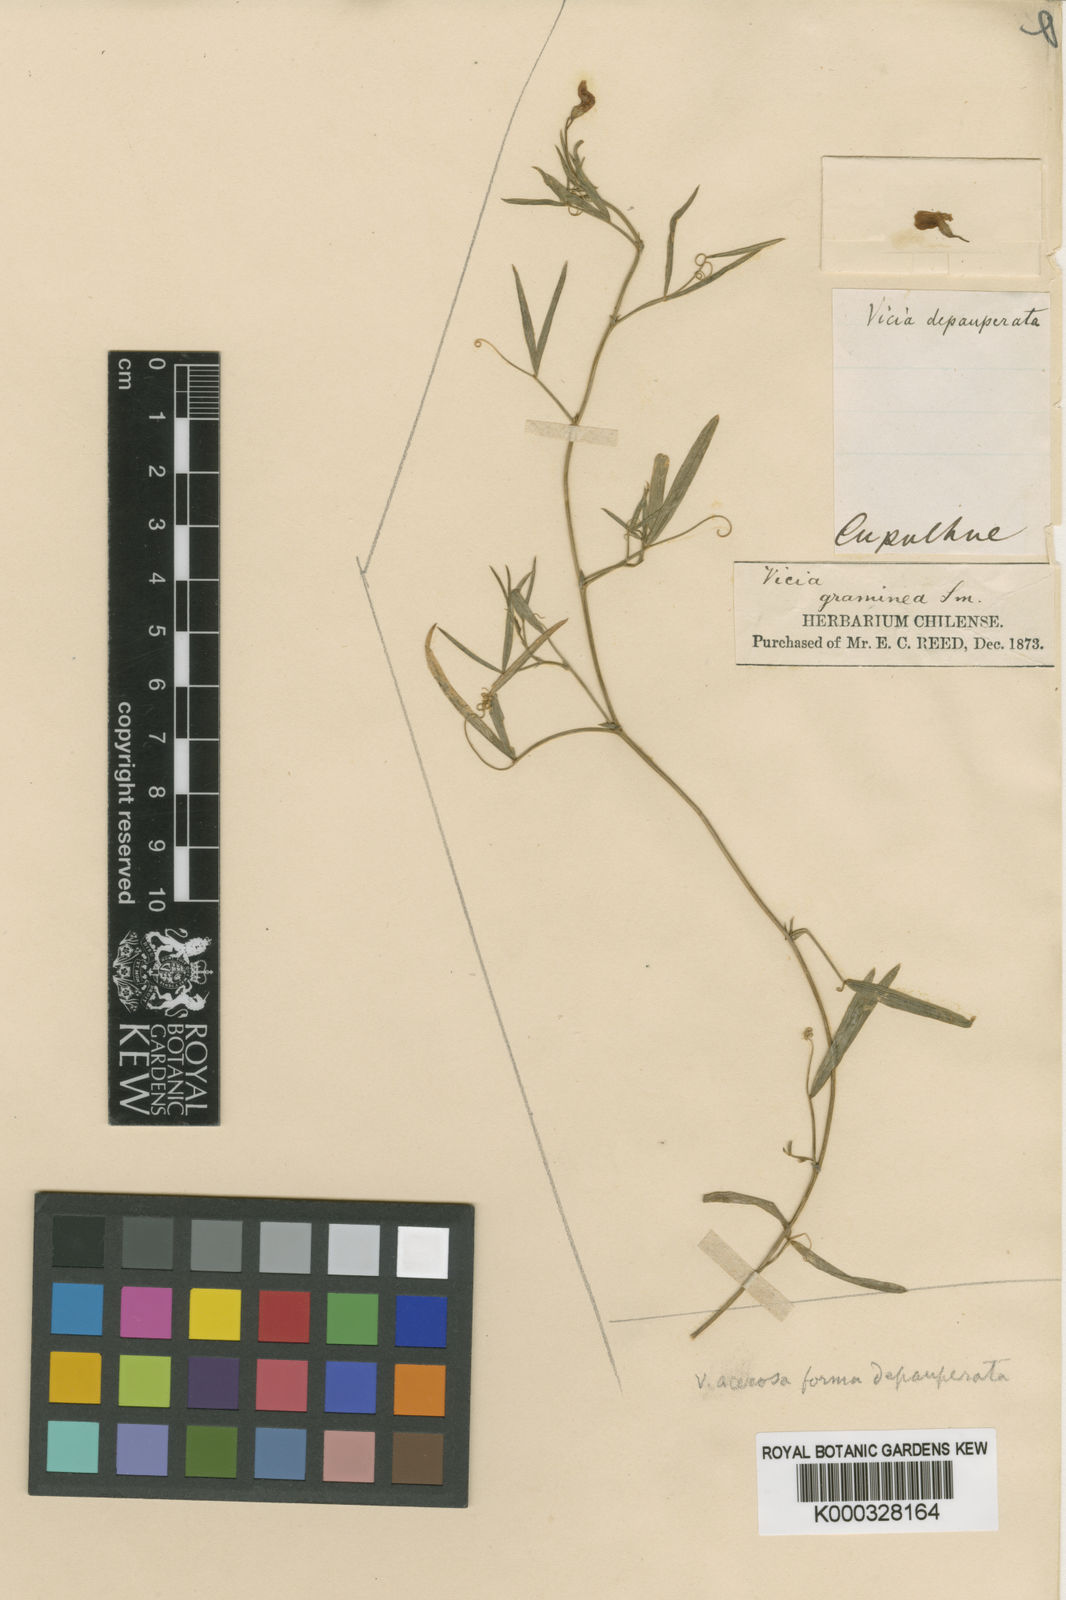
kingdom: Plantae
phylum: Tracheophyta
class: Magnoliopsida
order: Fabales
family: Fabaceae
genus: Vicia
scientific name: Vicia setifolia
